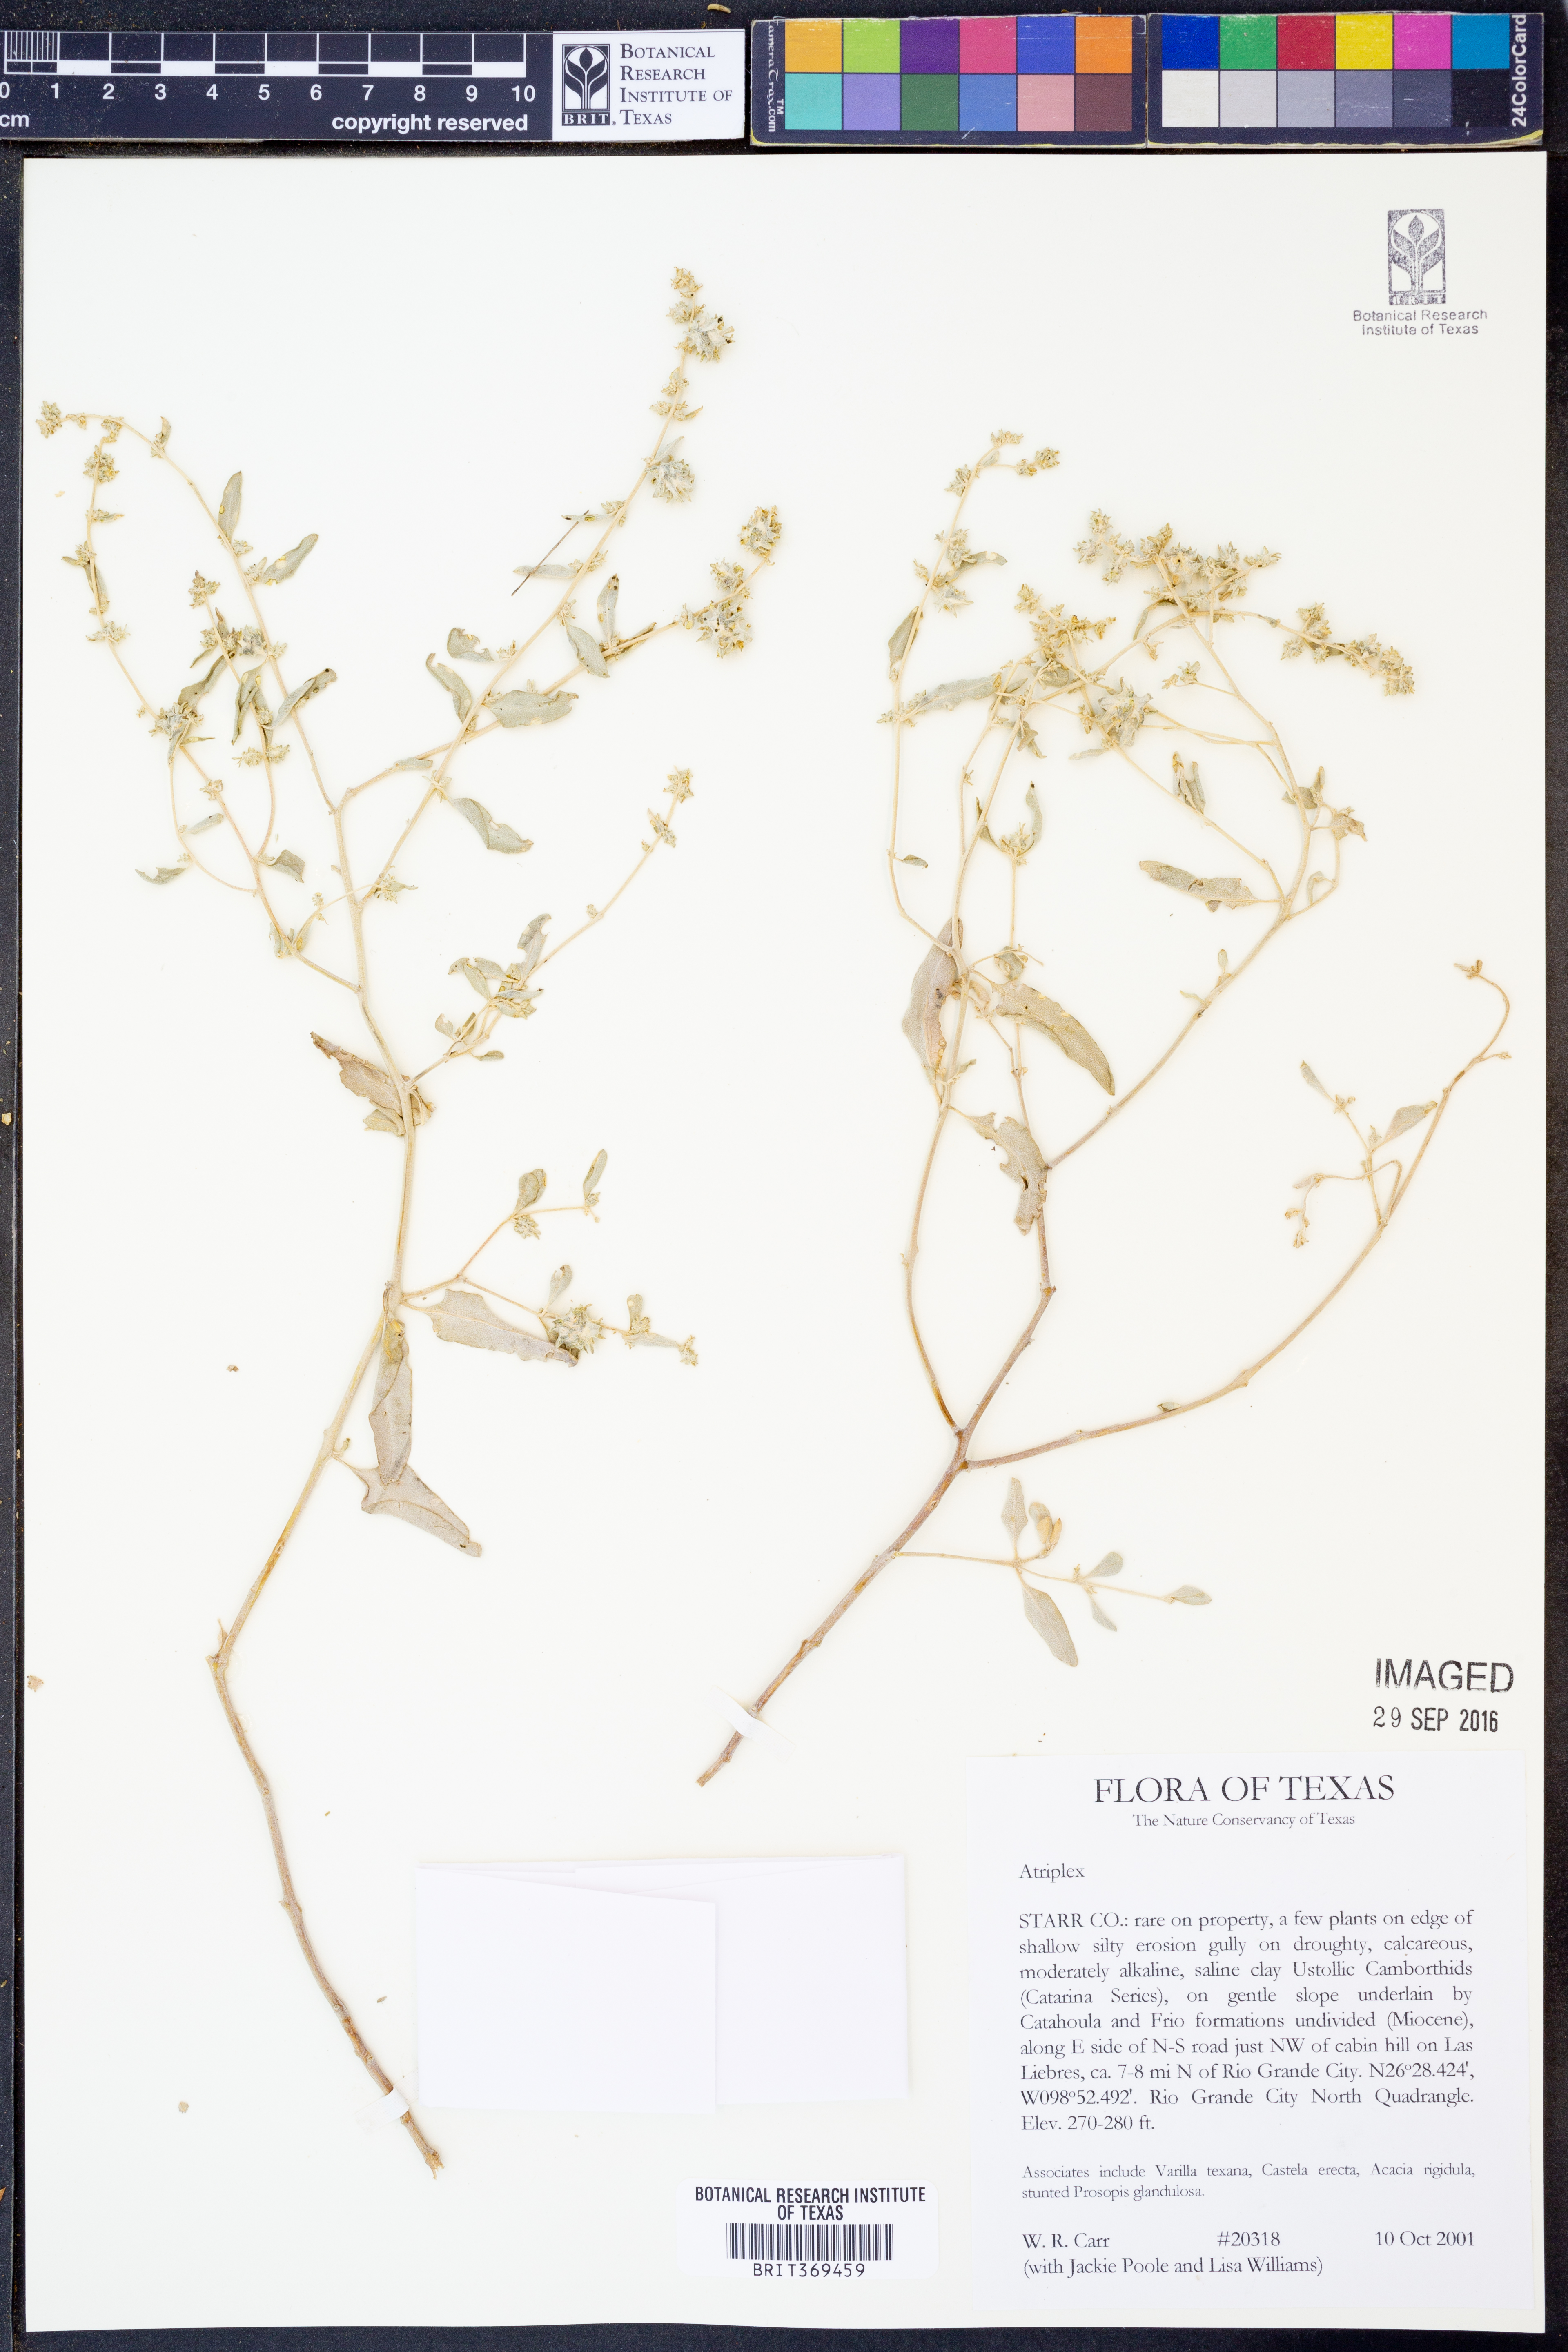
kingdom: Plantae
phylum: Tracheophyta
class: Magnoliopsida
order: Caryophyllales
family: Amaranthaceae
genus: Atriplex
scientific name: Atriplex
